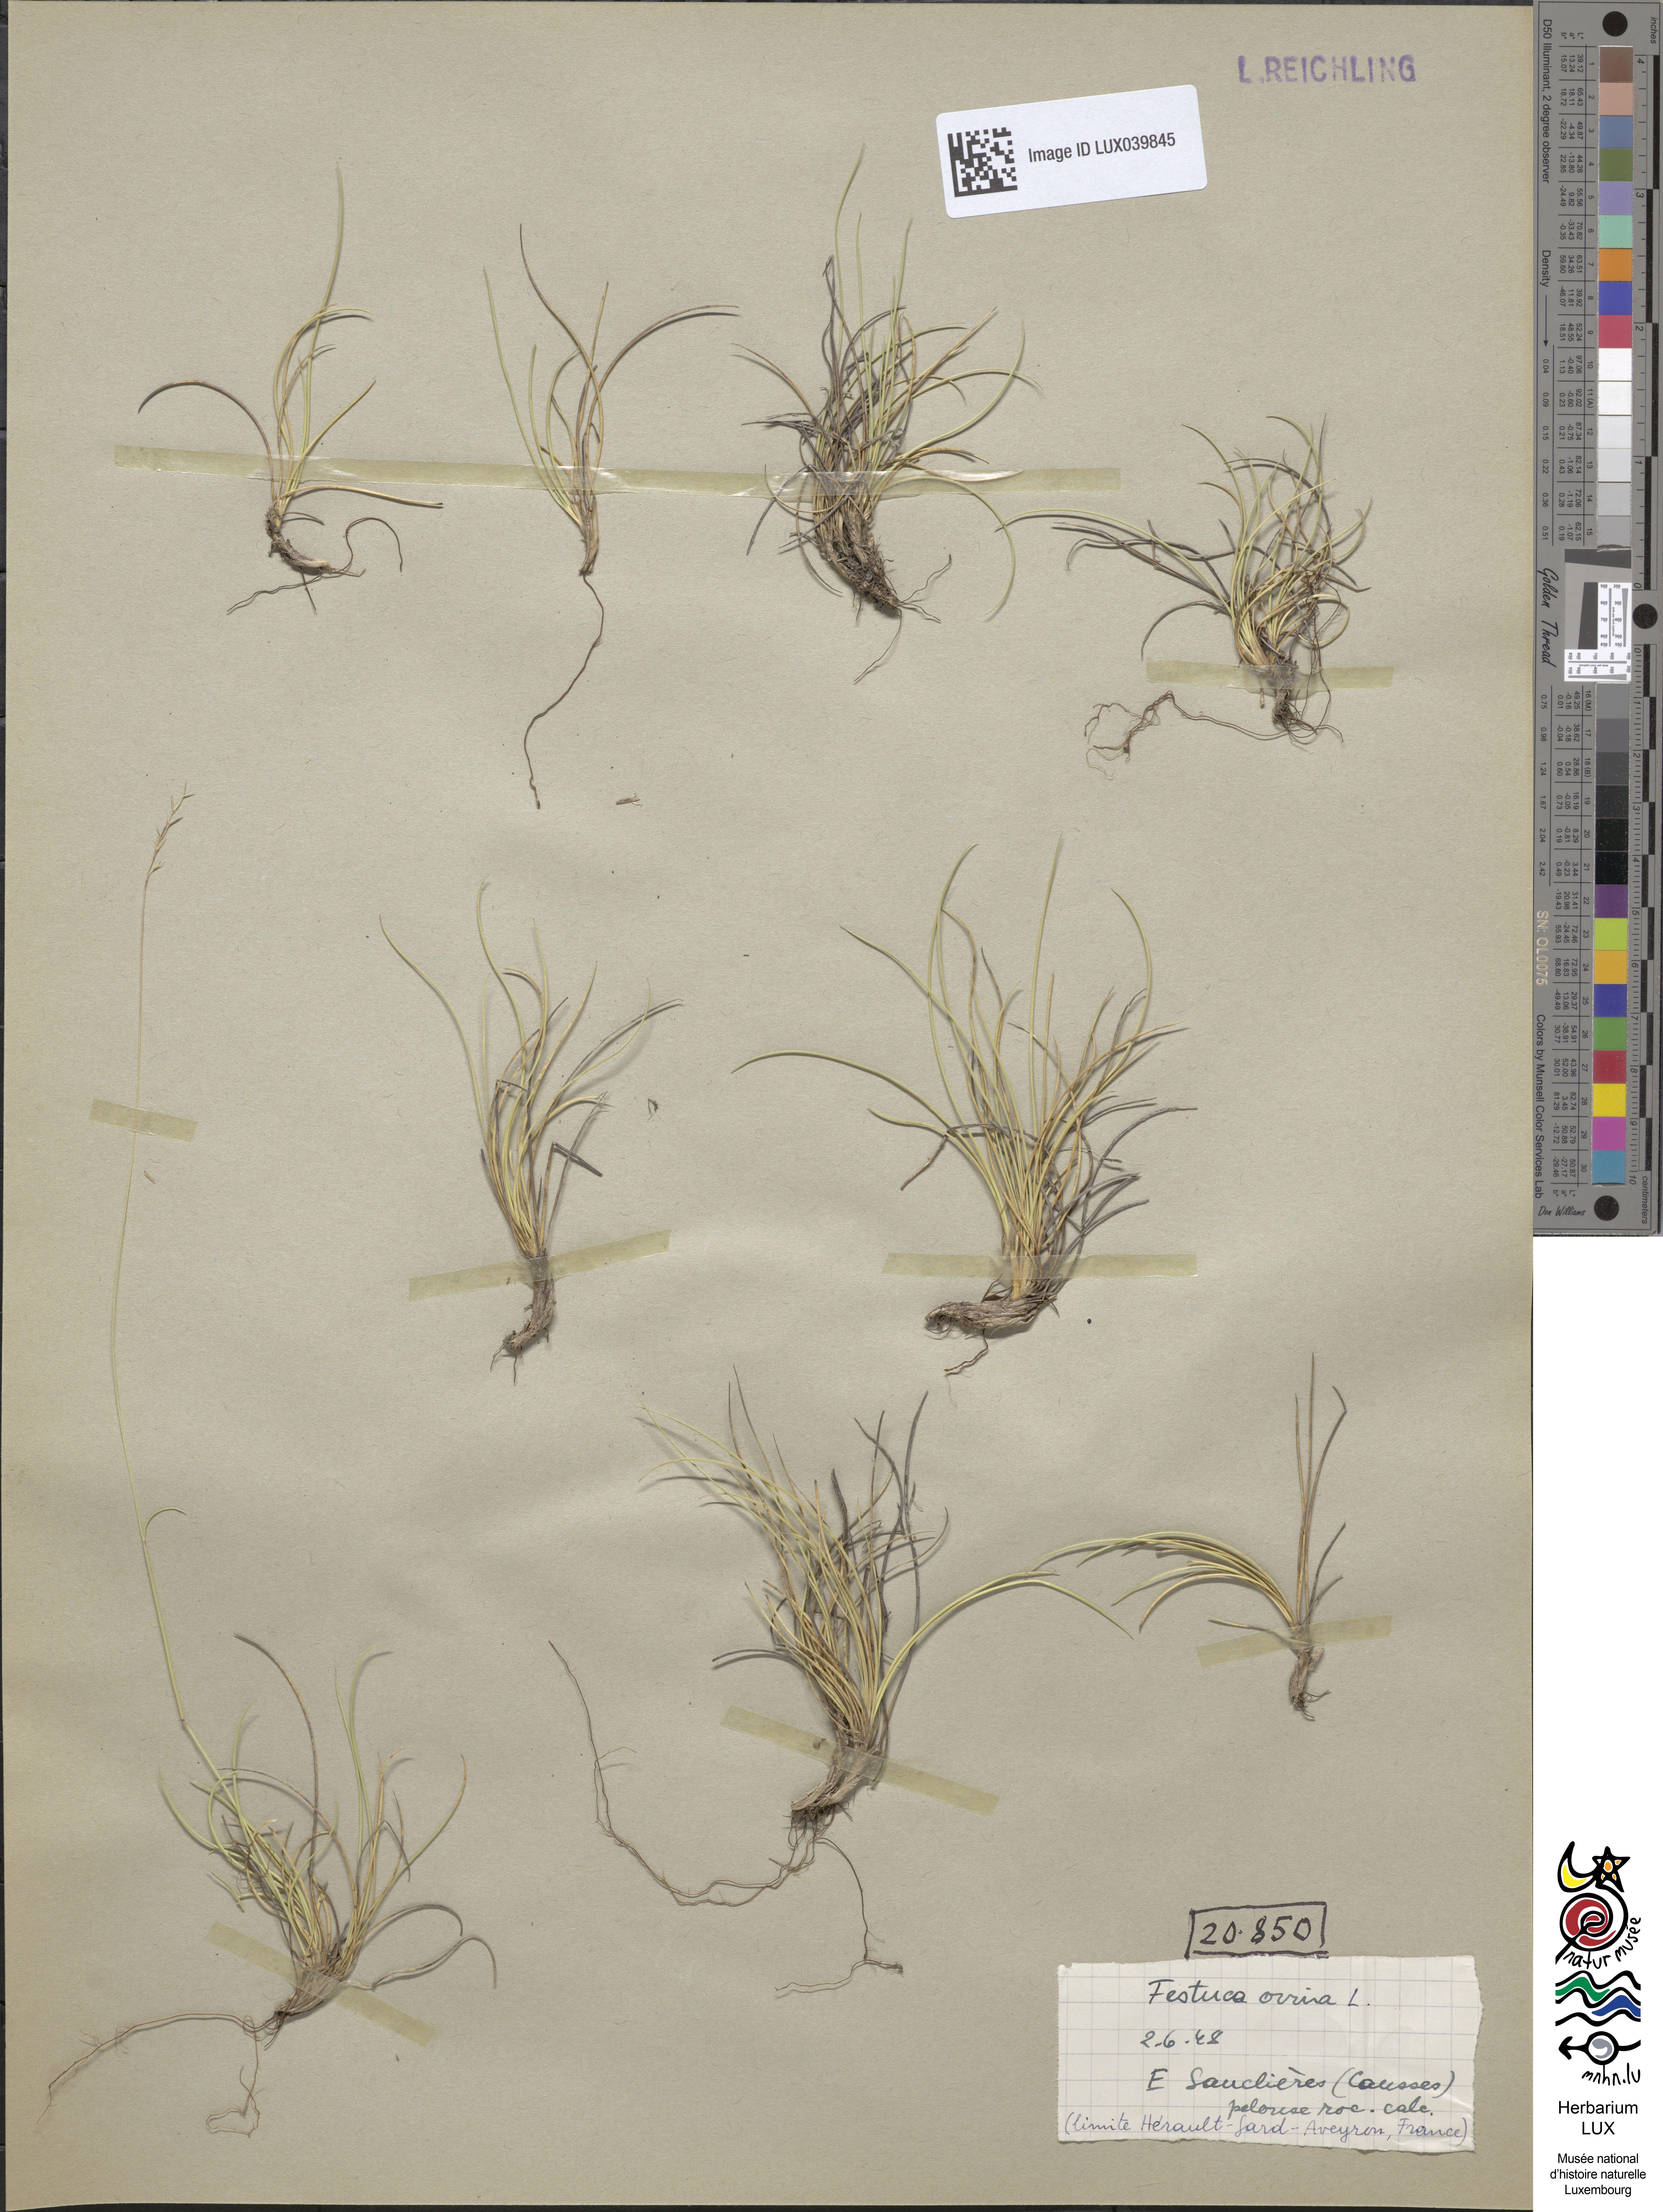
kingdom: Plantae
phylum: Tracheophyta
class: Liliopsida
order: Poales
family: Poaceae
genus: Festuca
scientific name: Festuca ovina
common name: Sheep fescue
